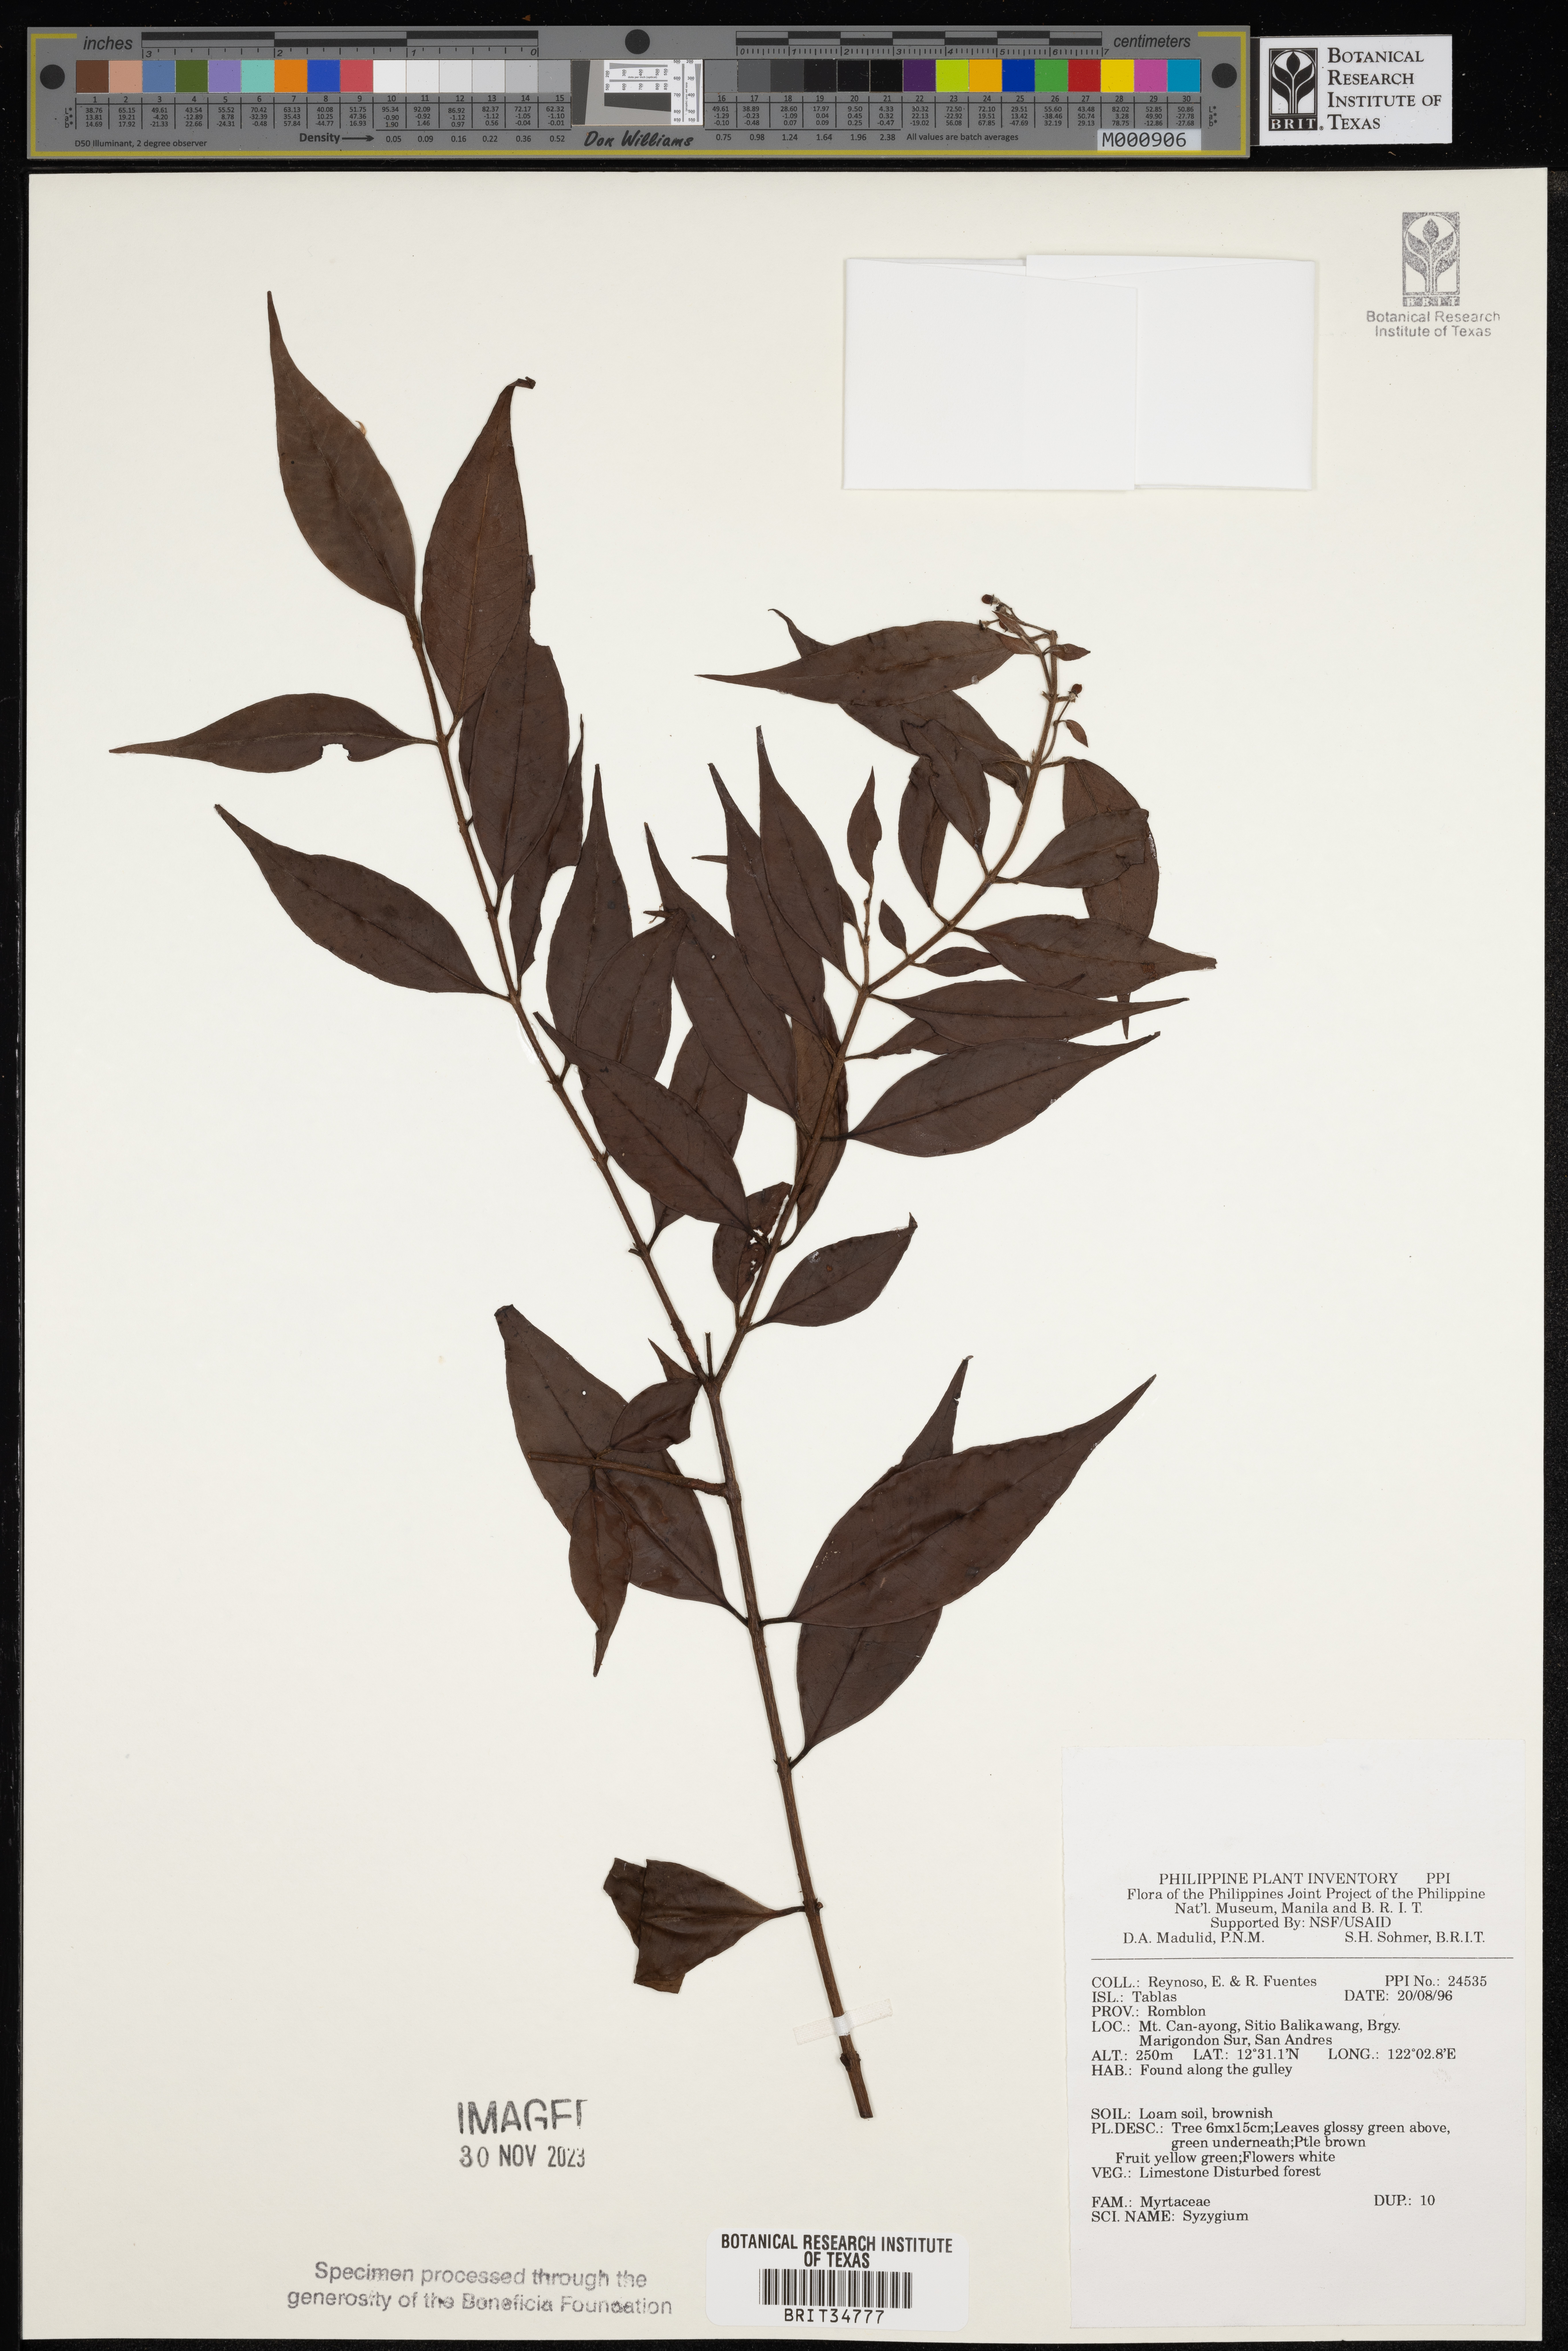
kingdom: Plantae
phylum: Tracheophyta
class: Magnoliopsida
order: Myrtales
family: Myrtaceae
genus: Syzygium
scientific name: Syzygium
